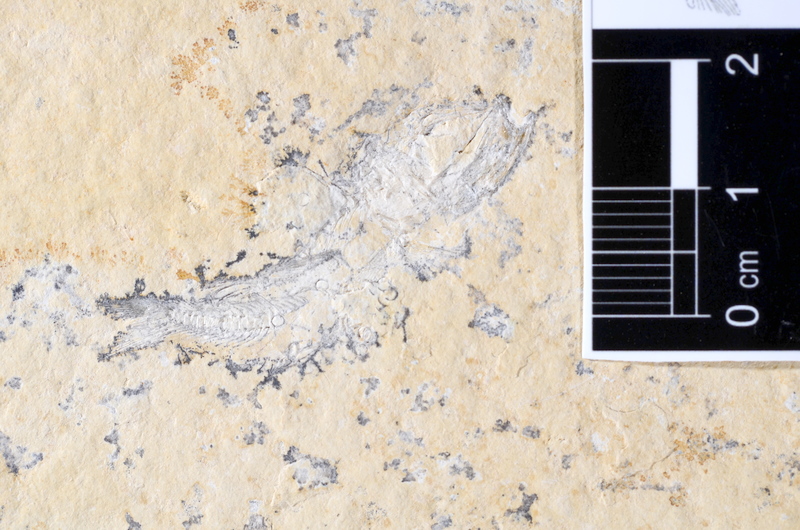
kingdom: Animalia
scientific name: Animalia
